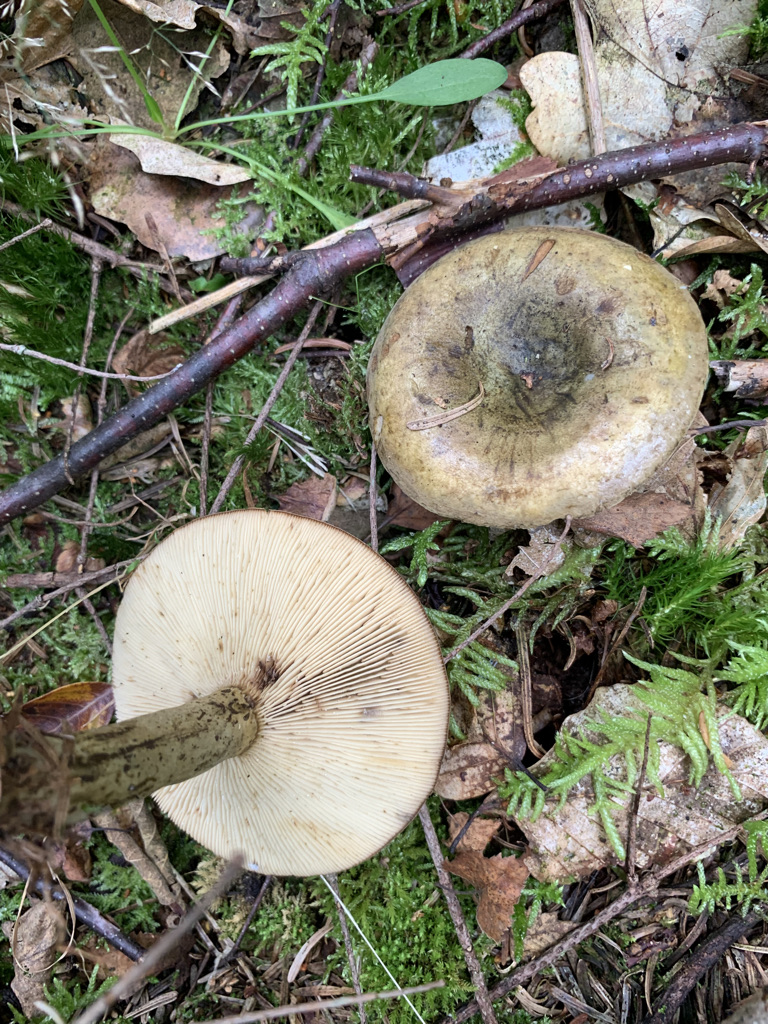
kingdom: Fungi
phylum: Basidiomycota
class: Agaricomycetes
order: Russulales
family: Russulaceae
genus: Lactarius
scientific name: Lactarius necator
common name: manddraber-mælkehat
